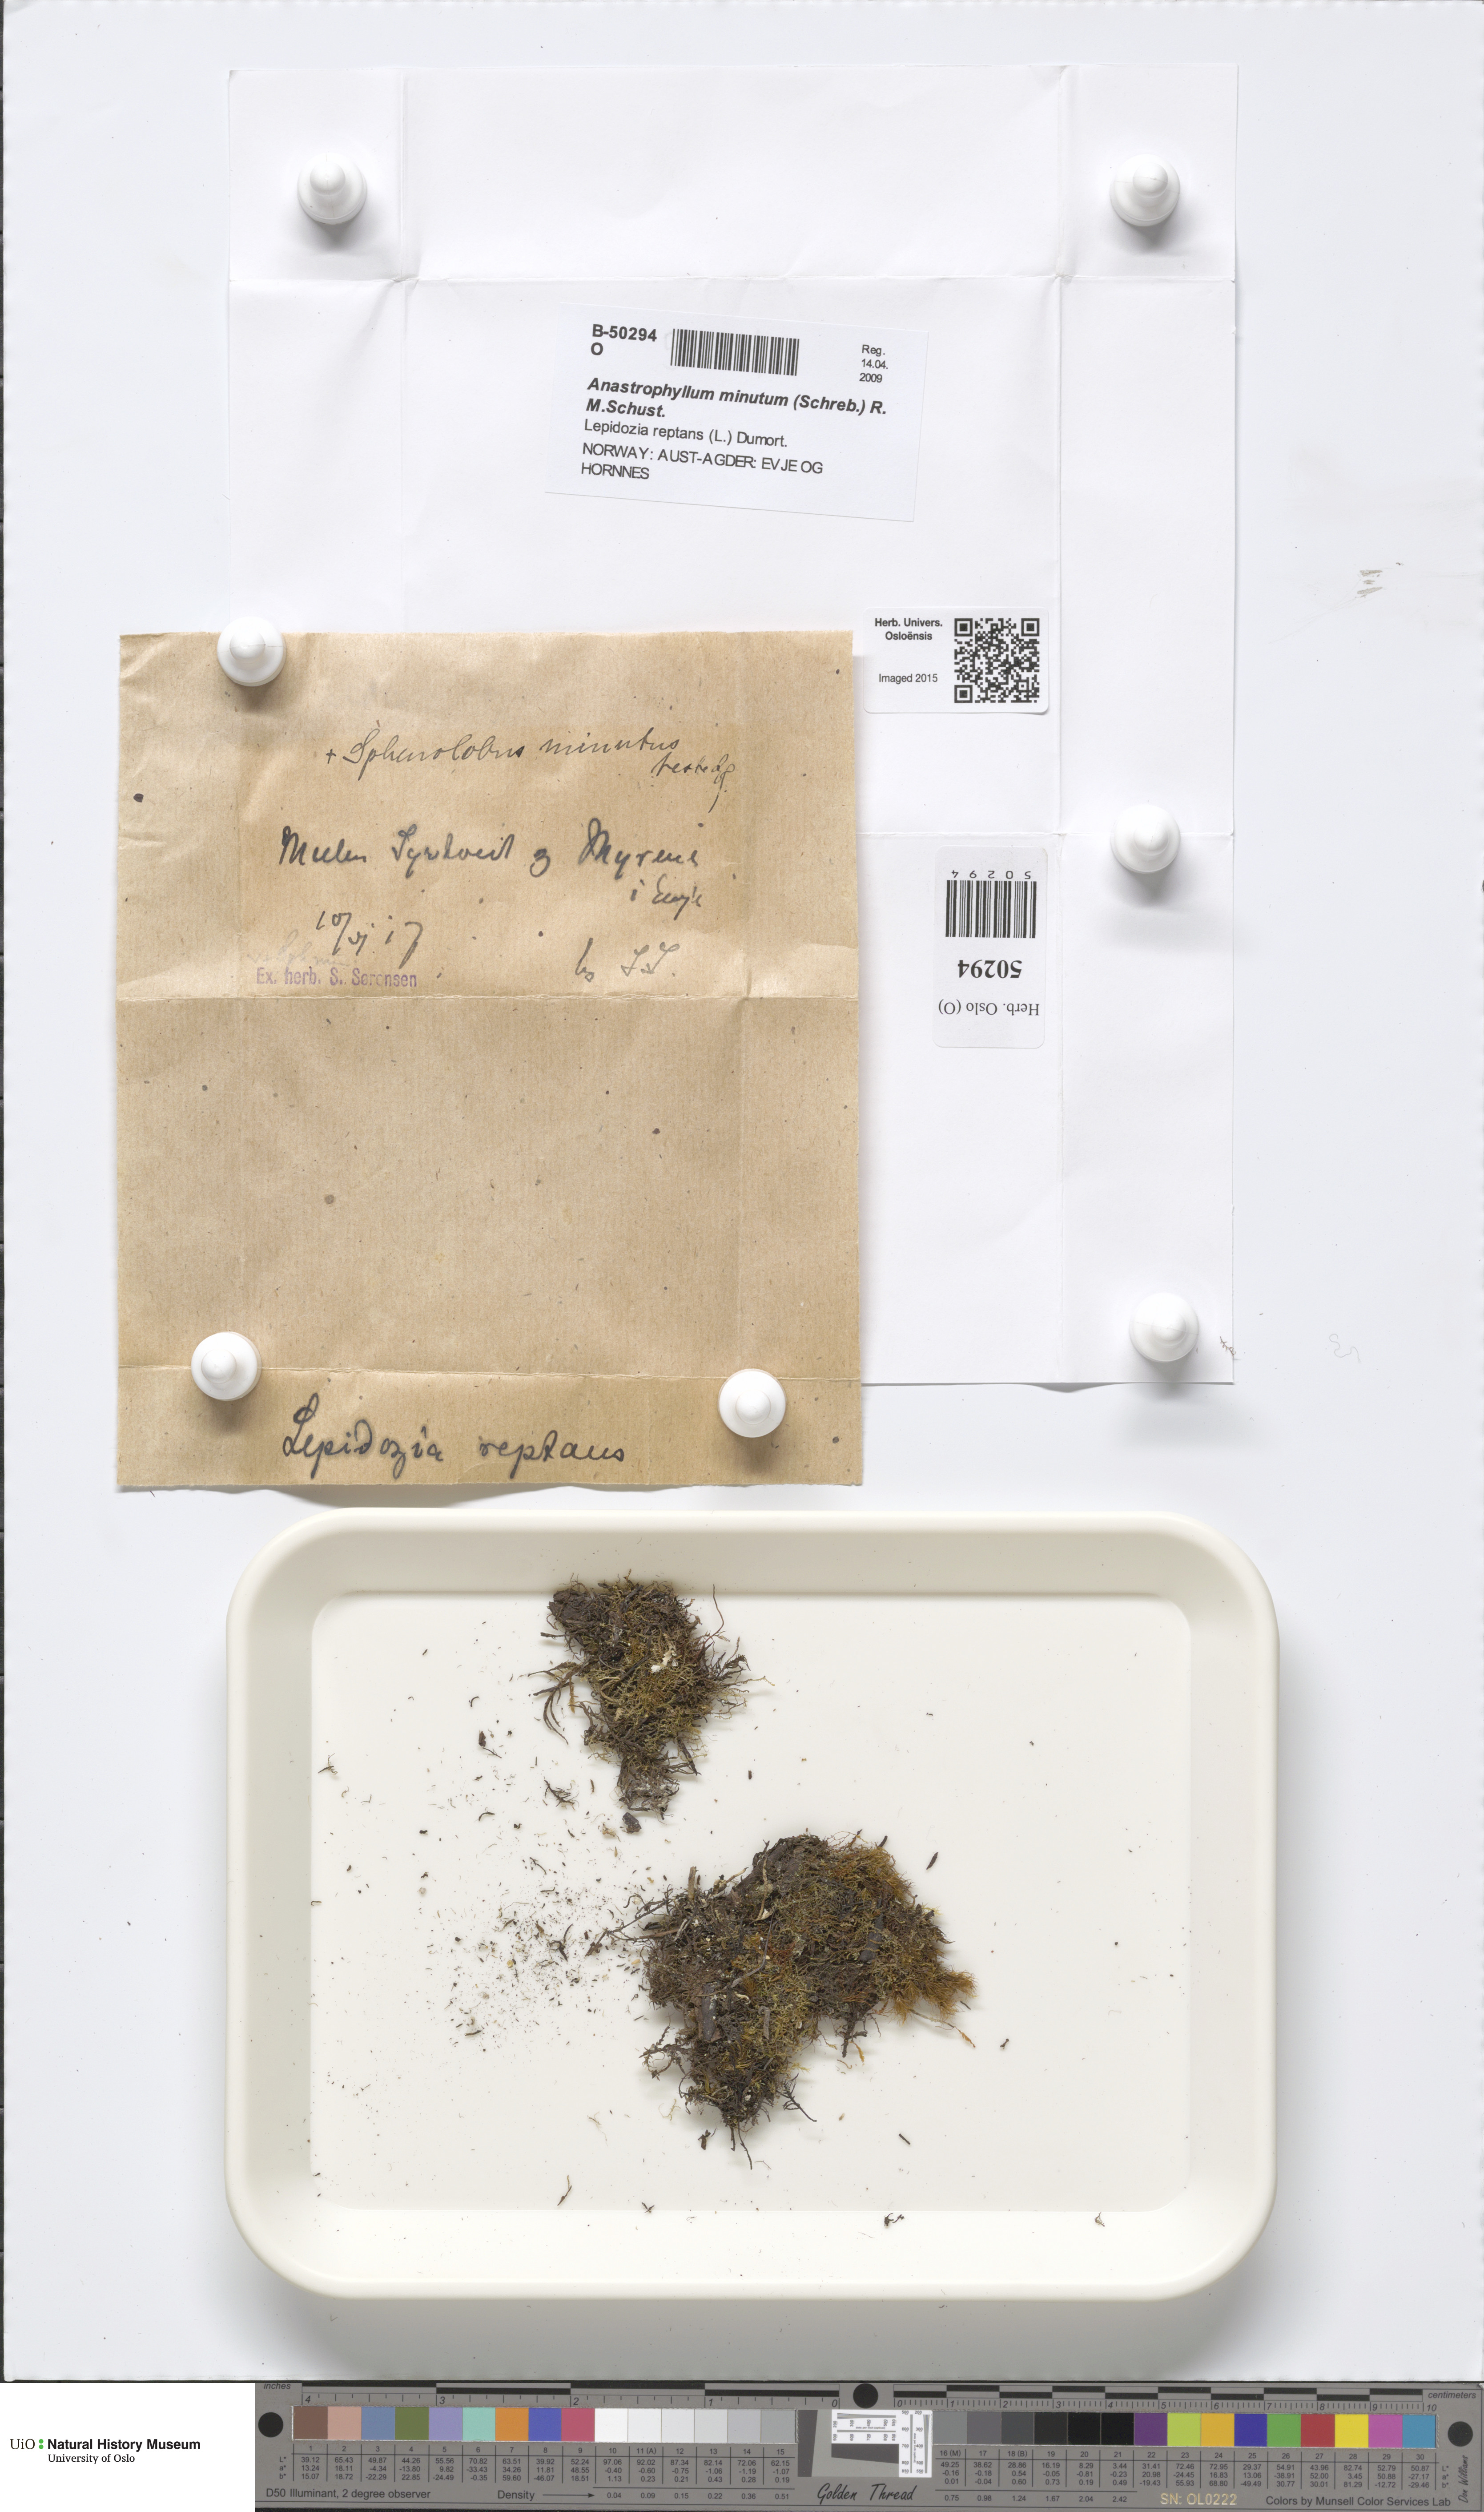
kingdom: Plantae
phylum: Marchantiophyta
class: Jungermanniopsida
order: Jungermanniales
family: Anastrophyllaceae
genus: Sphenolobus
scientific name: Sphenolobus minutus
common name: Comb notchwort
